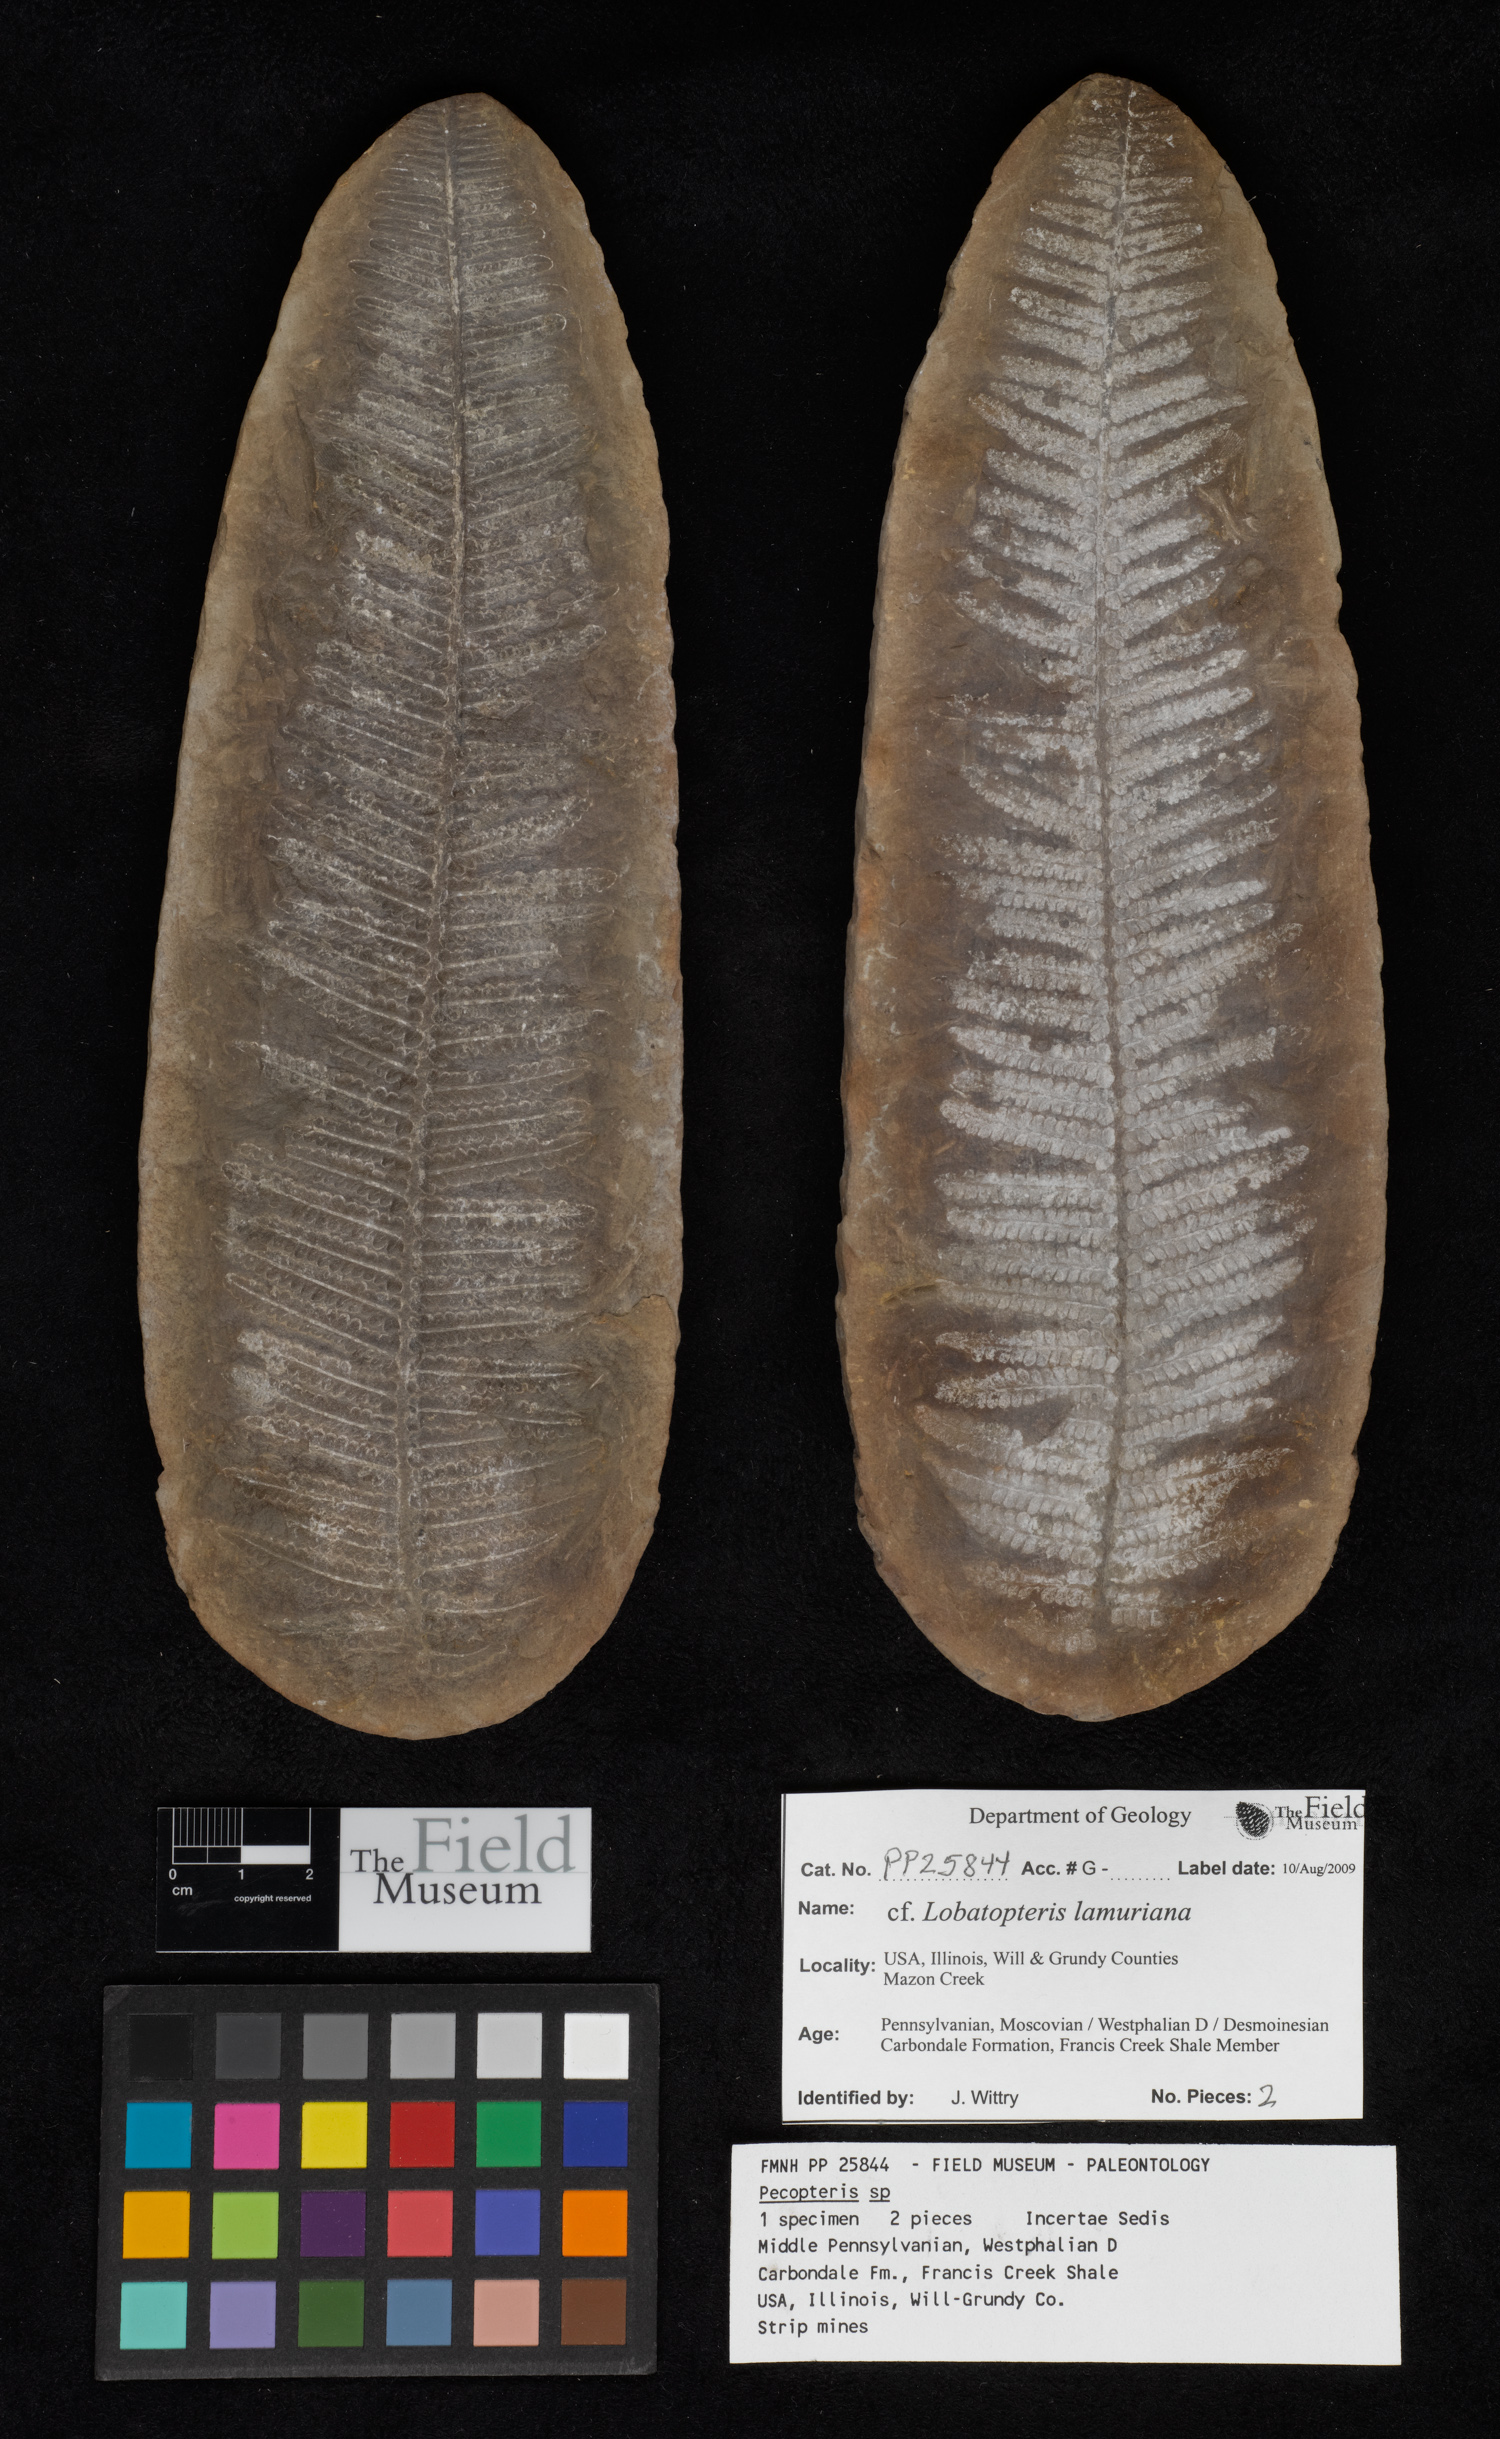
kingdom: Plantae
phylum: Tracheophyta
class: Polypodiopsida
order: Marattiales
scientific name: Marattiales
